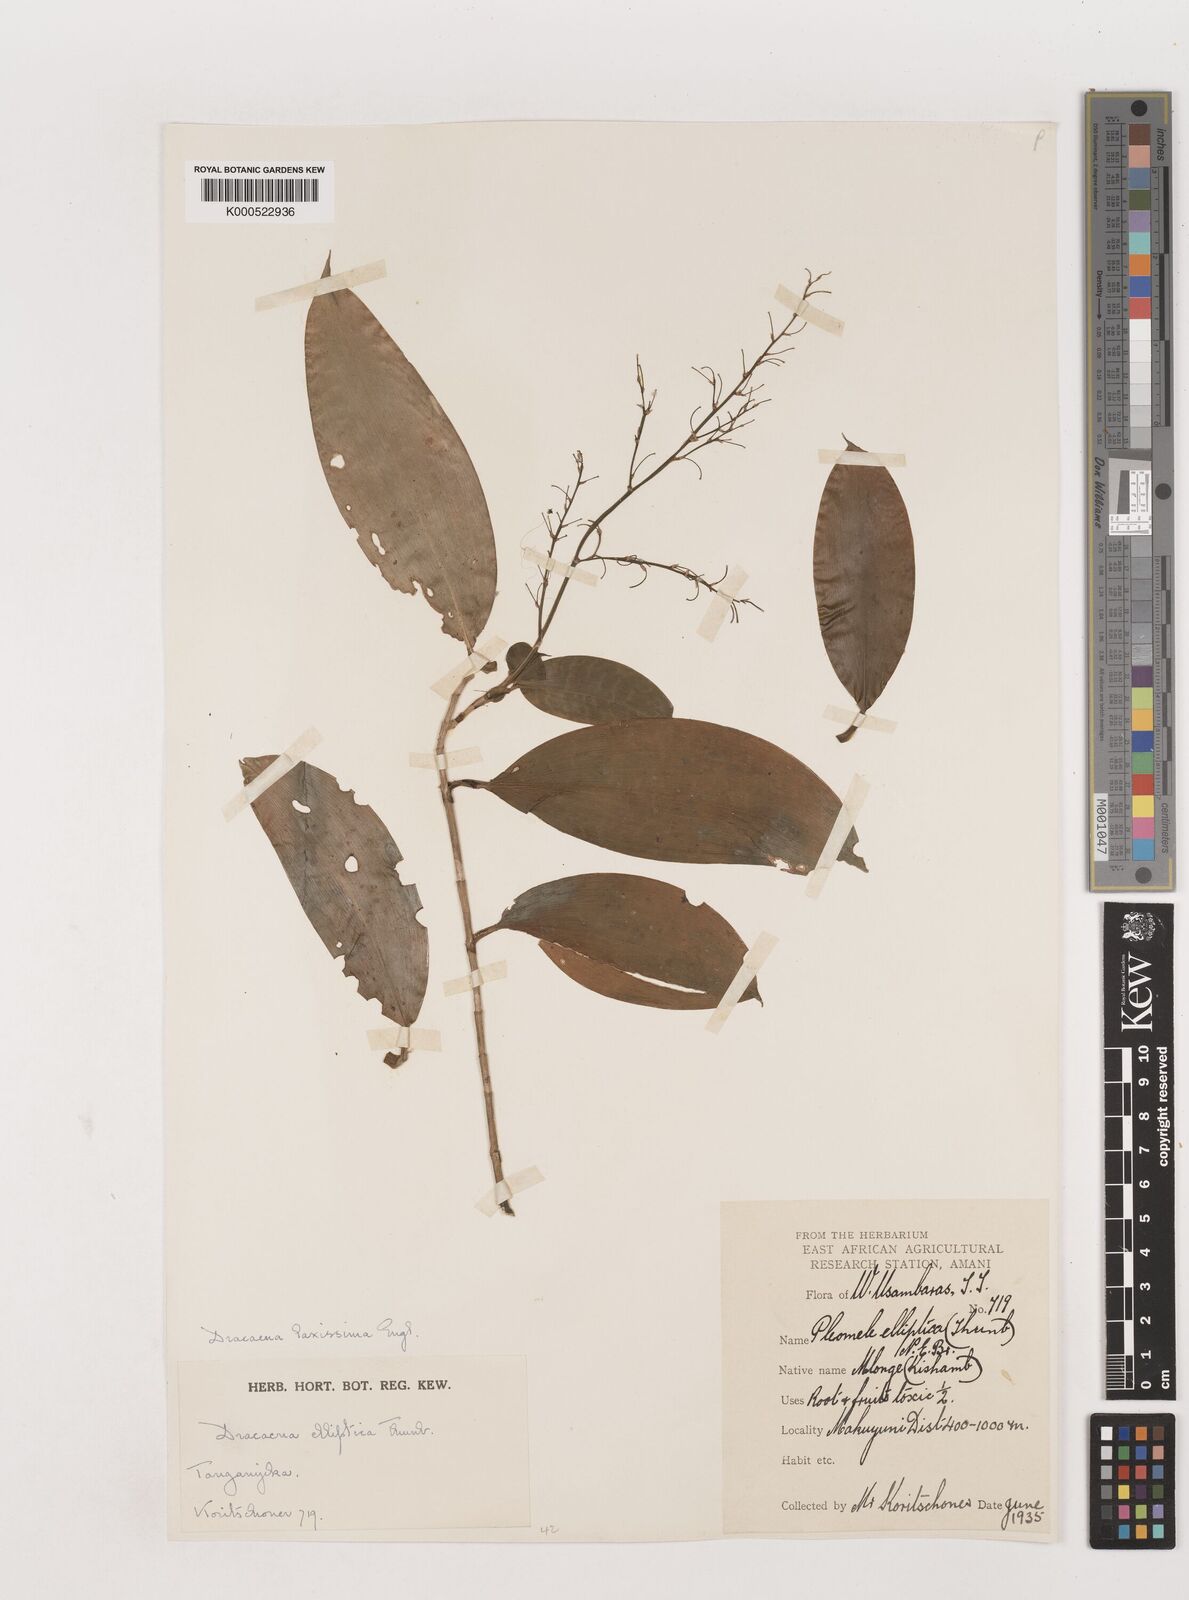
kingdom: Plantae
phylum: Tracheophyta
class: Liliopsida
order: Asparagales
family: Asparagaceae
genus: Dracaena
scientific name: Dracaena laxissima
